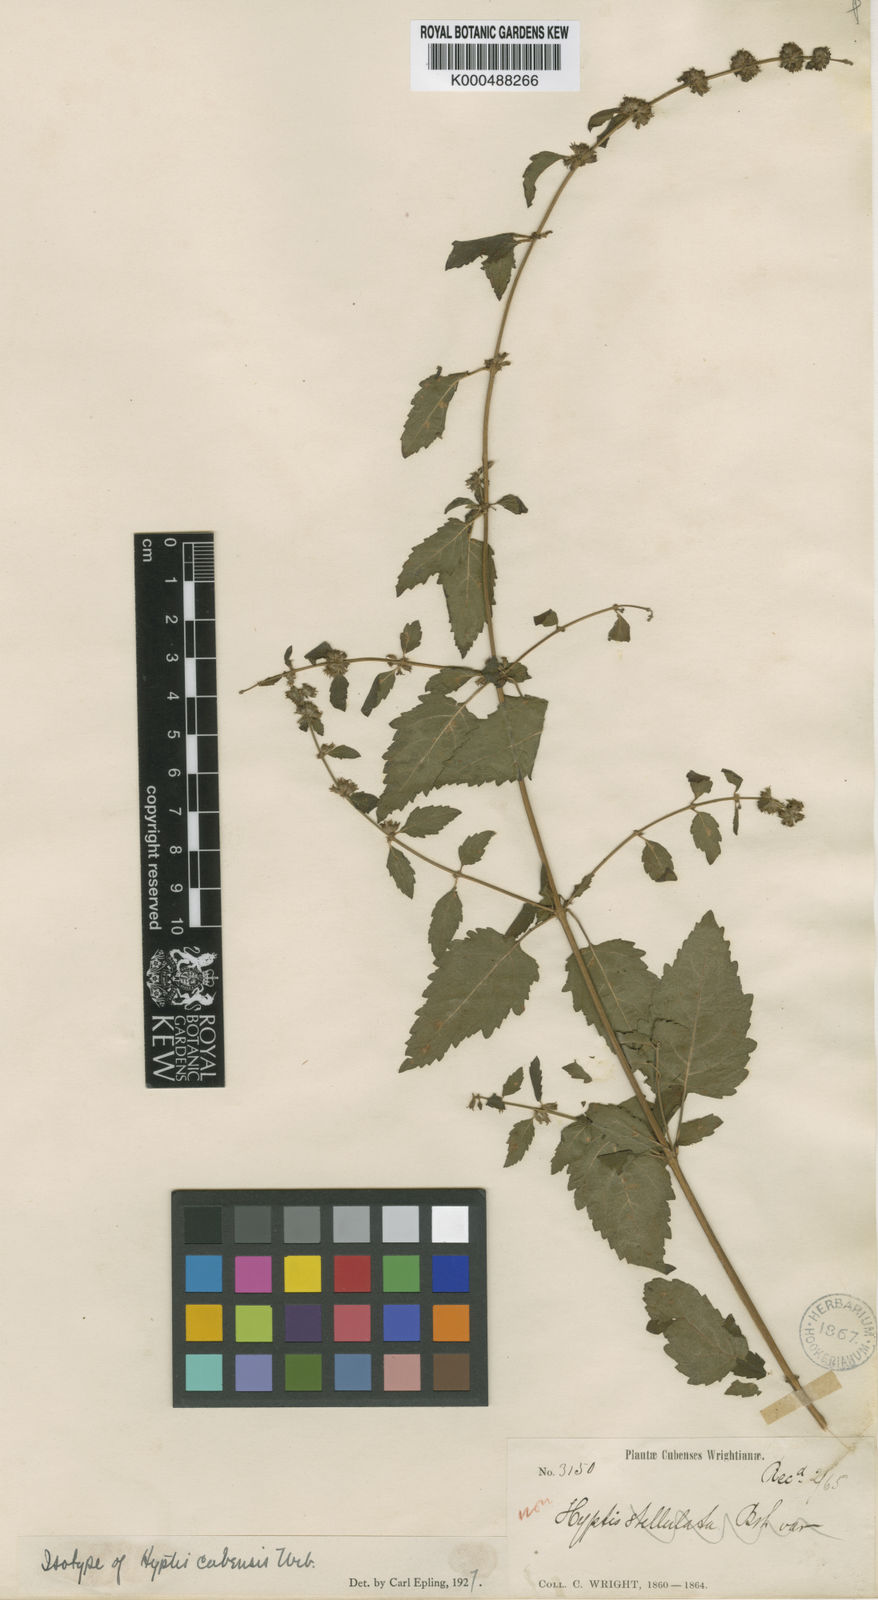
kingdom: Plantae
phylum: Tracheophyta
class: Magnoliopsida
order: Lamiales
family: Lamiaceae
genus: Condea
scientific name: Condea cubensis
